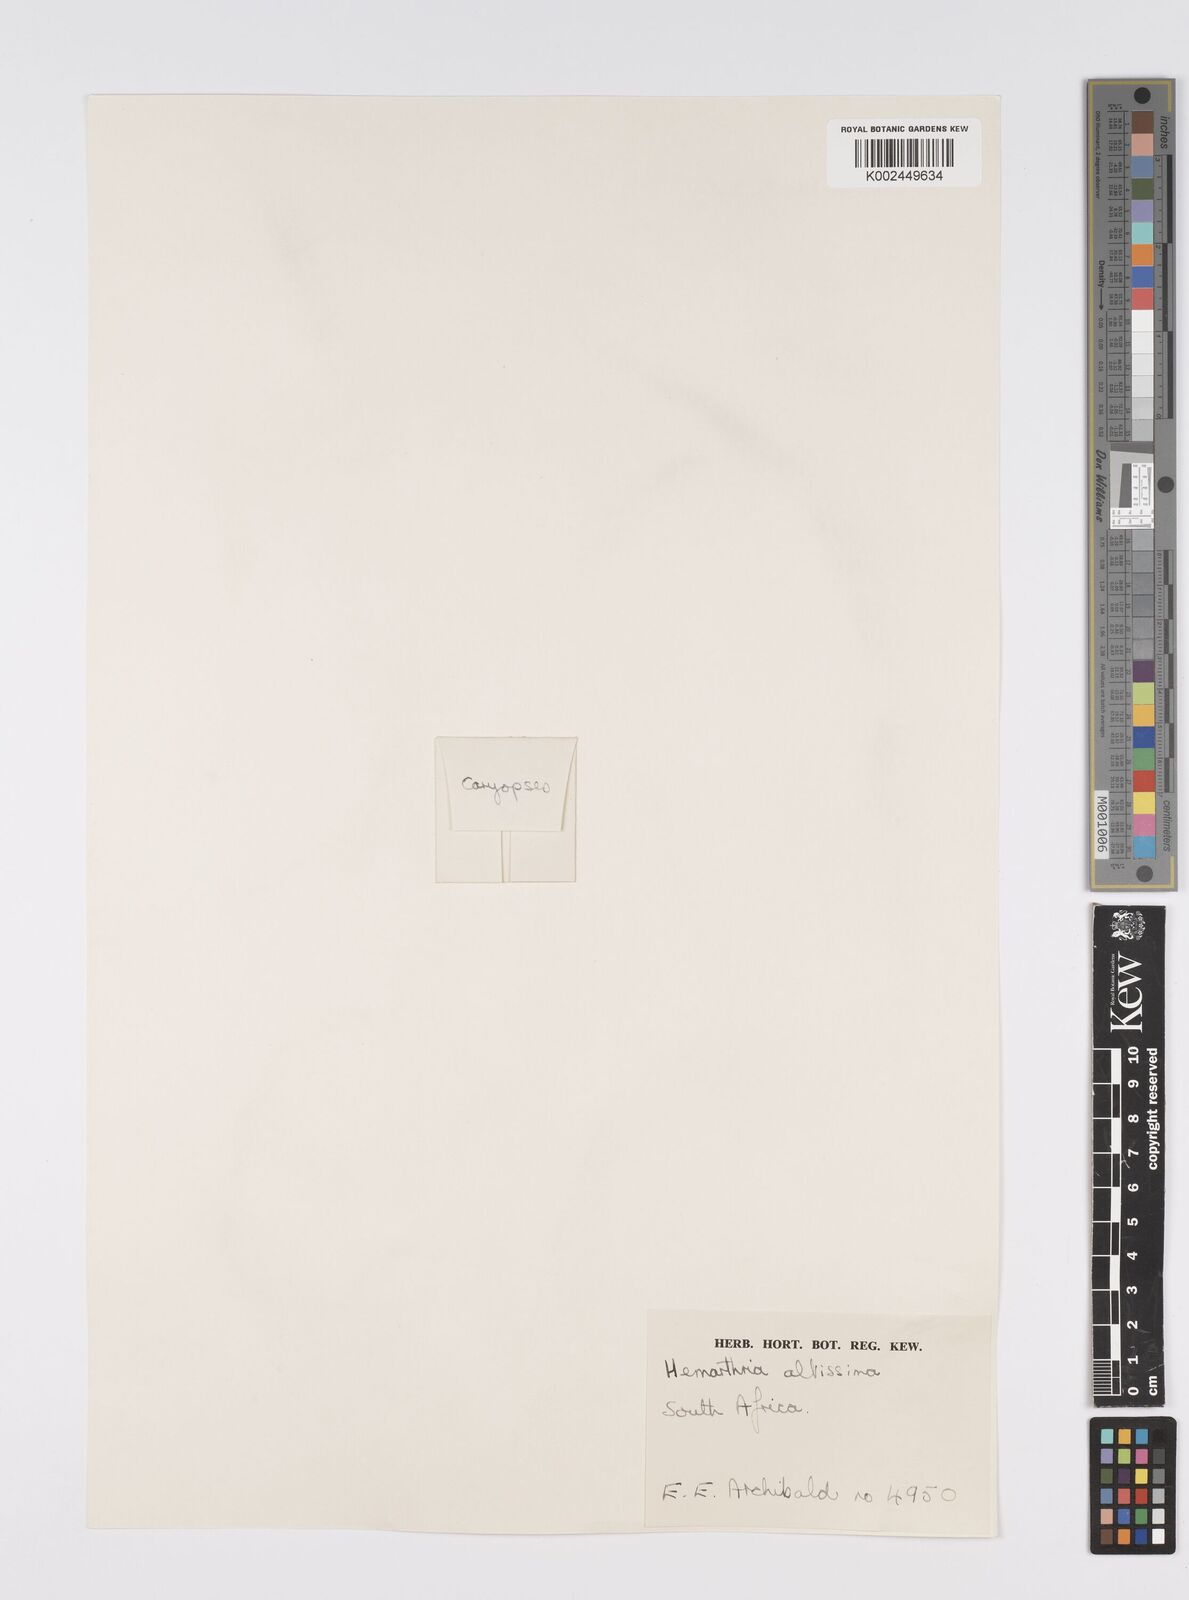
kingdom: Plantae
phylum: Tracheophyta
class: Liliopsida
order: Poales
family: Poaceae
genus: Hemarthria
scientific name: Hemarthria altissima
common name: African jointgrass
